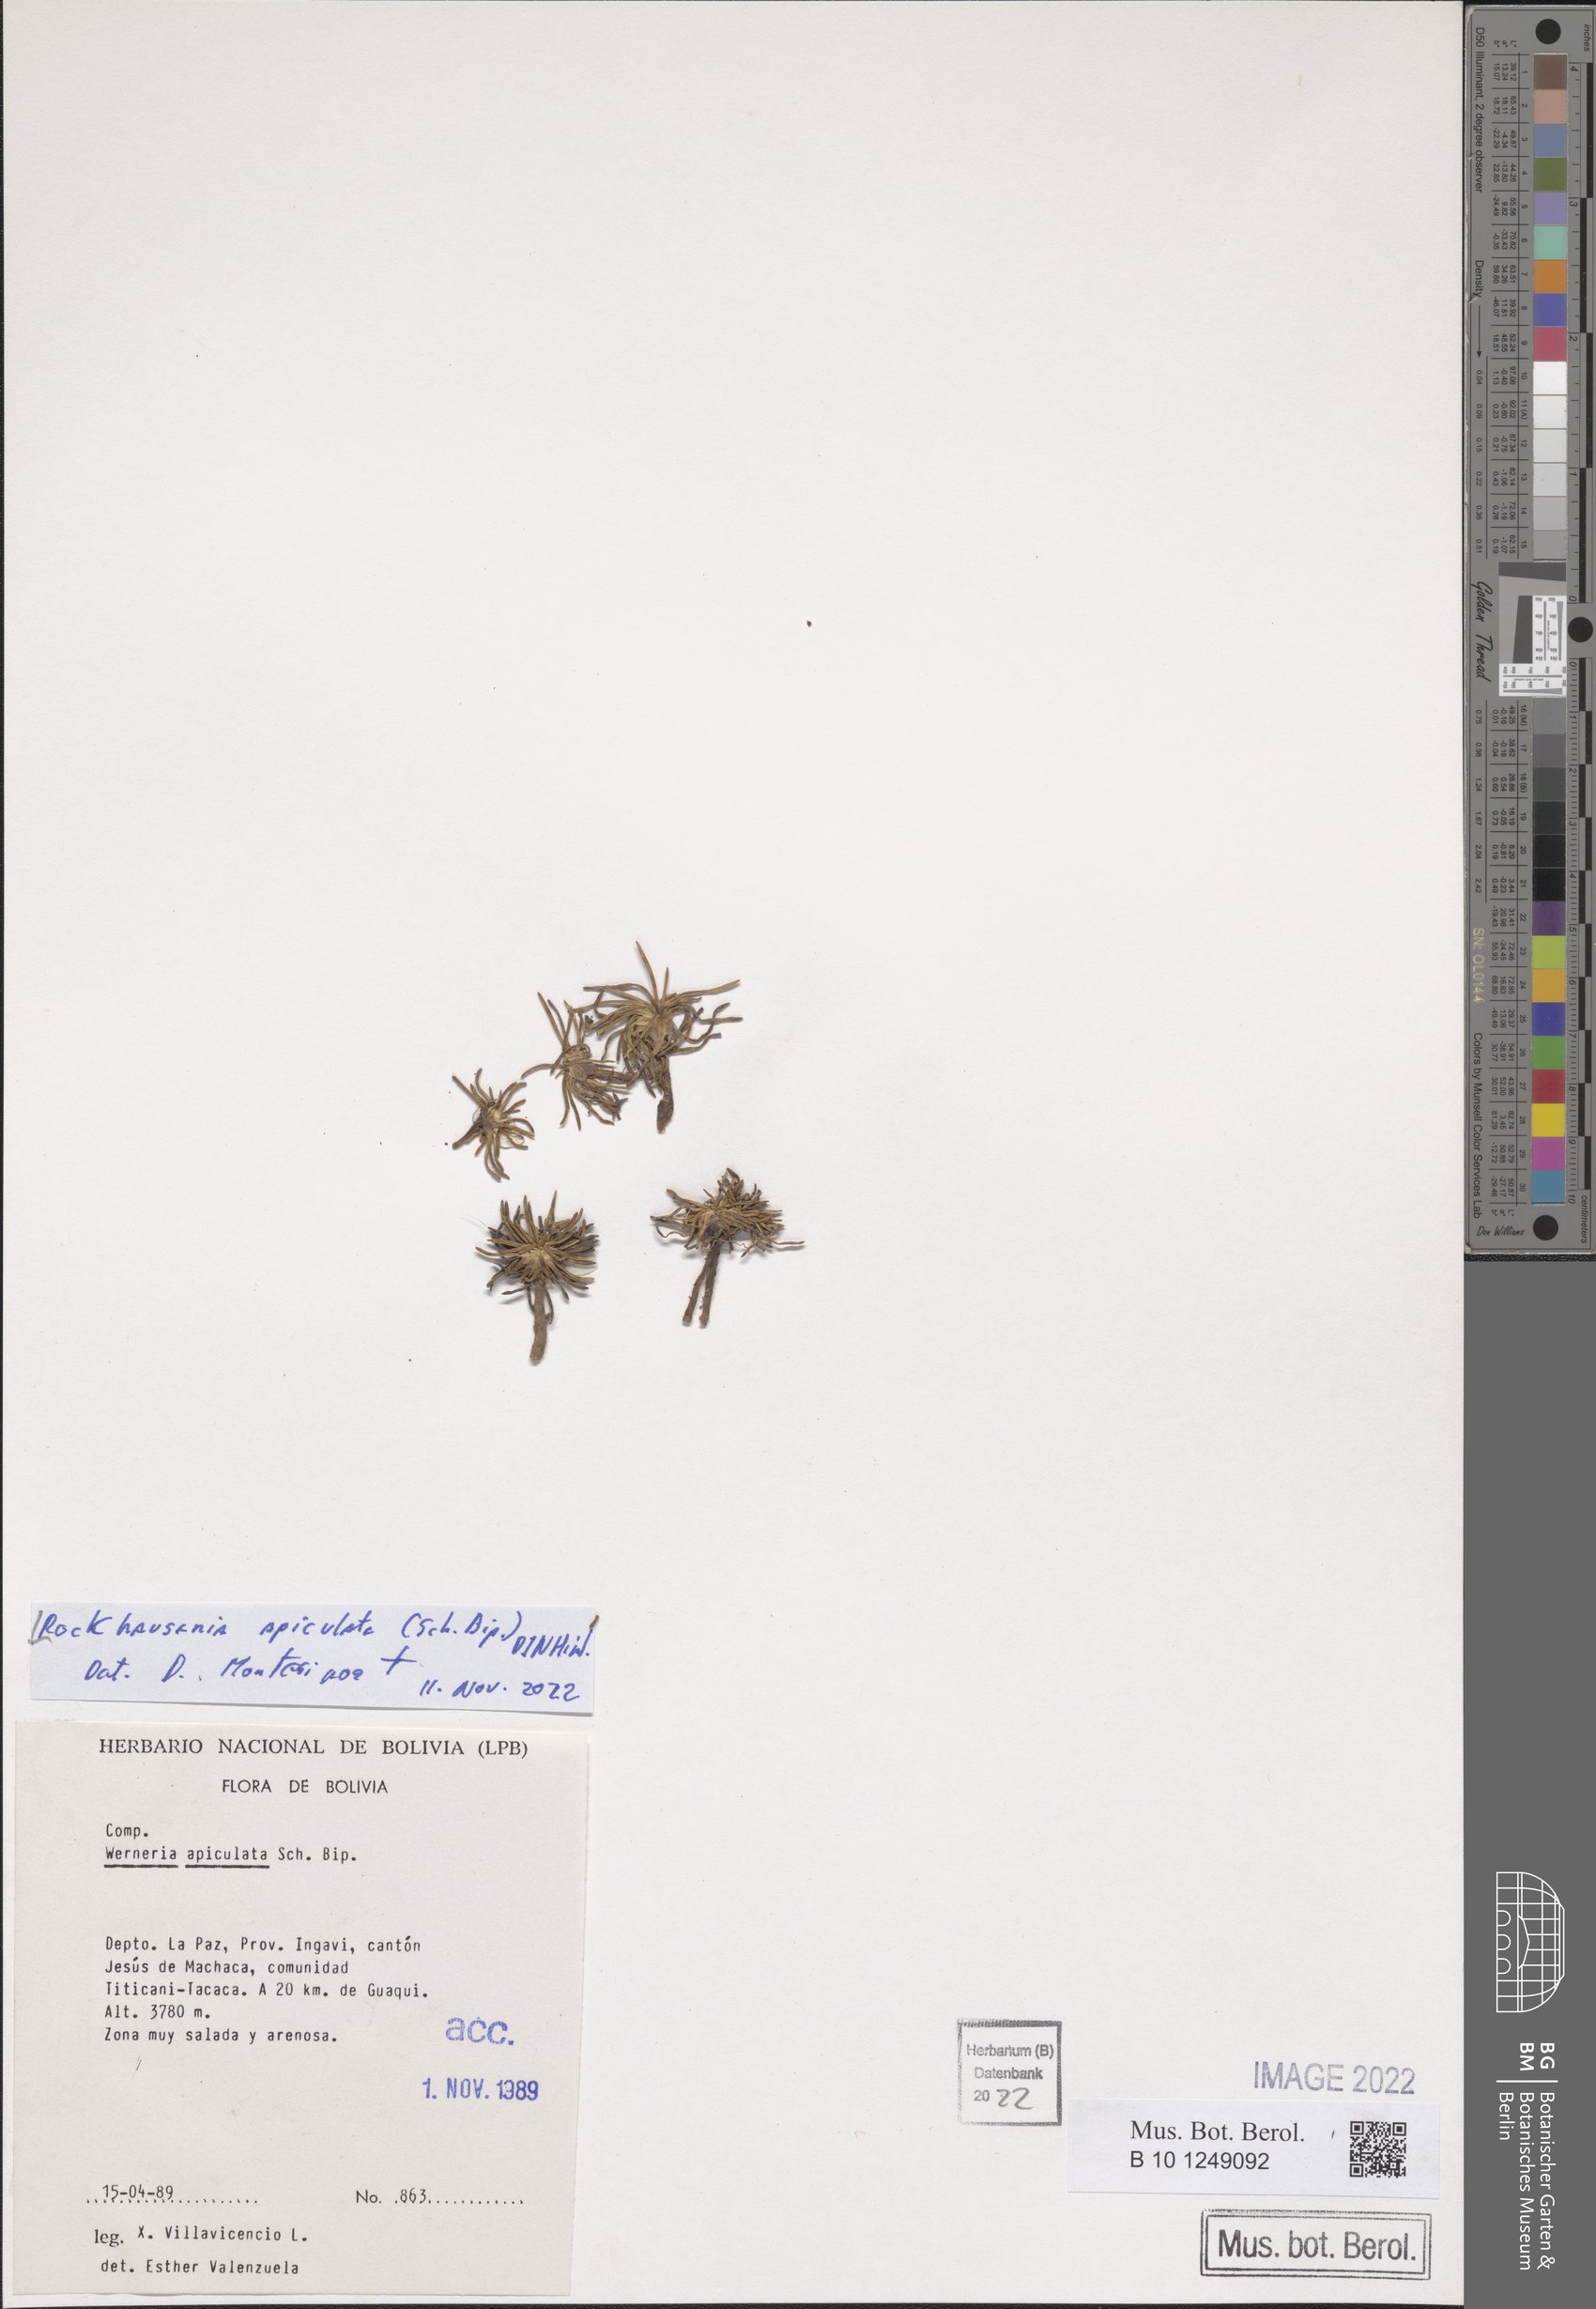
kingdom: Plantae
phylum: Tracheophyta
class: Magnoliopsida
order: Asterales
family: Asteraceae
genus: Rockhausenia
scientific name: Rockhausenia apiculata
